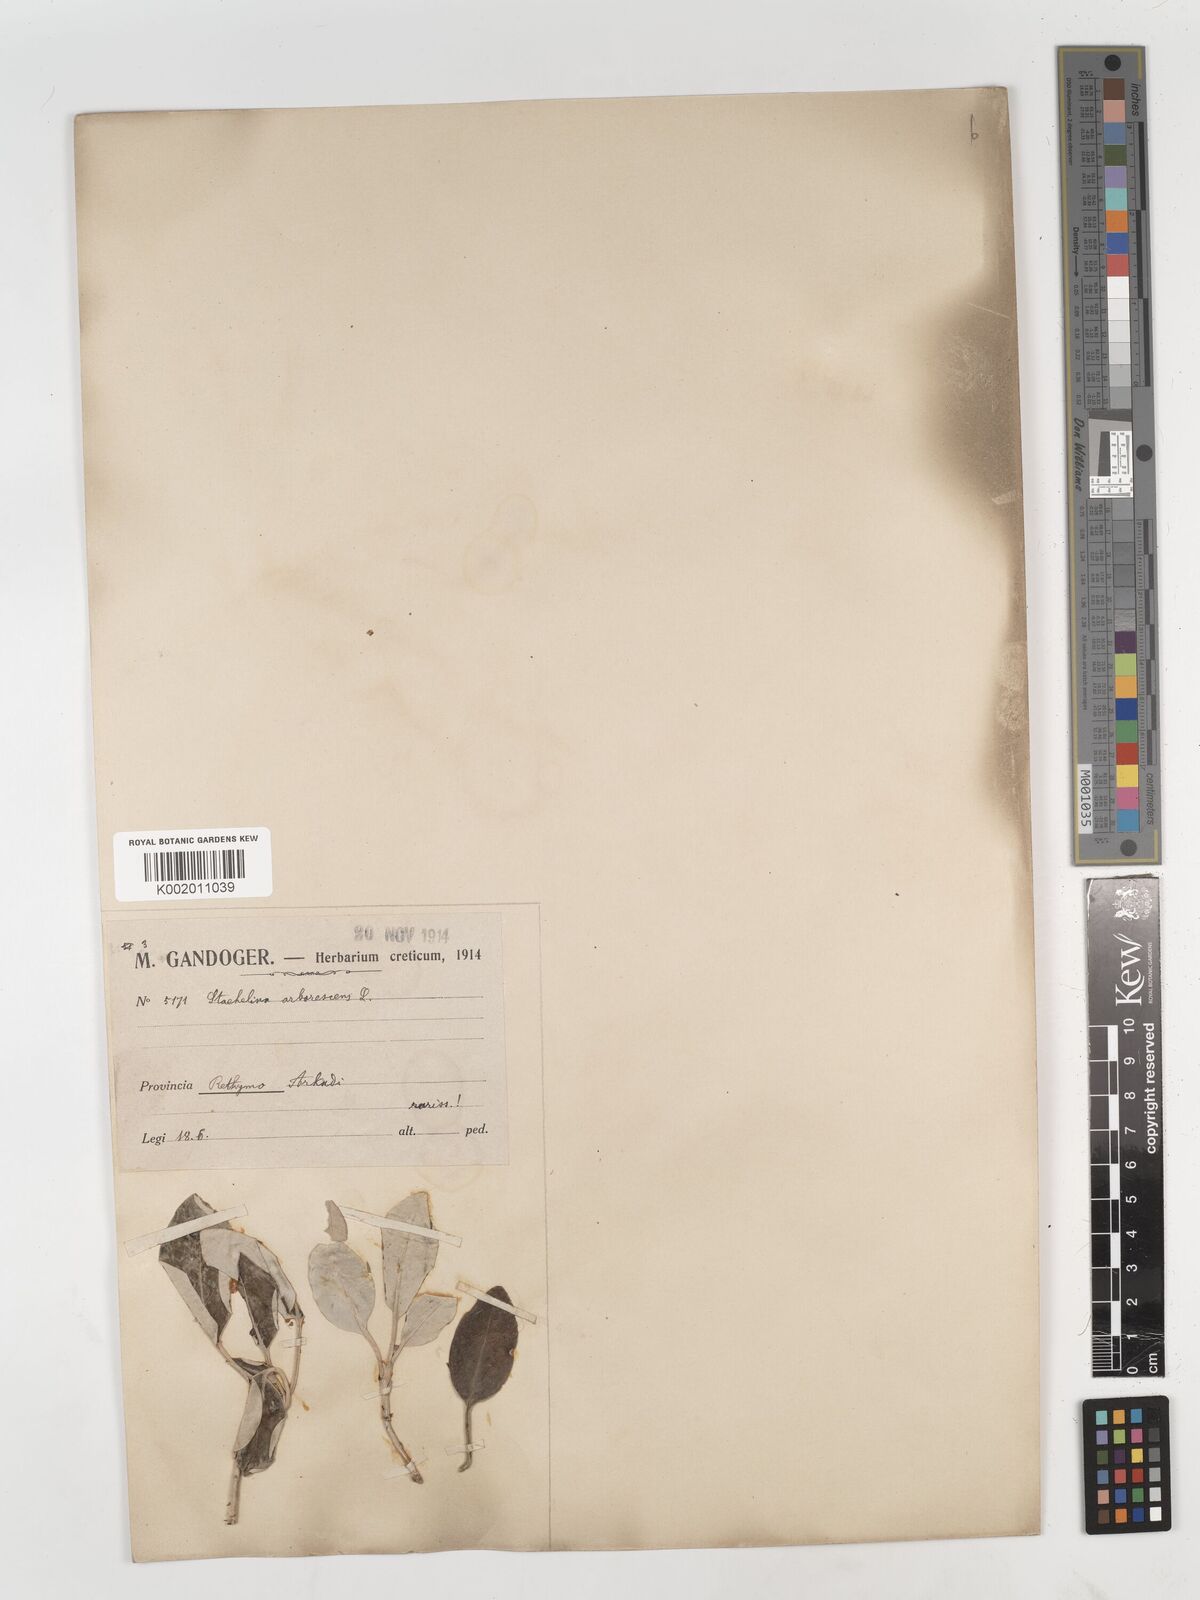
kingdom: Plantae
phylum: Tracheophyta
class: Magnoliopsida
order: Asterales
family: Asteraceae
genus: Staehelina
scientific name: Staehelina petiolata
